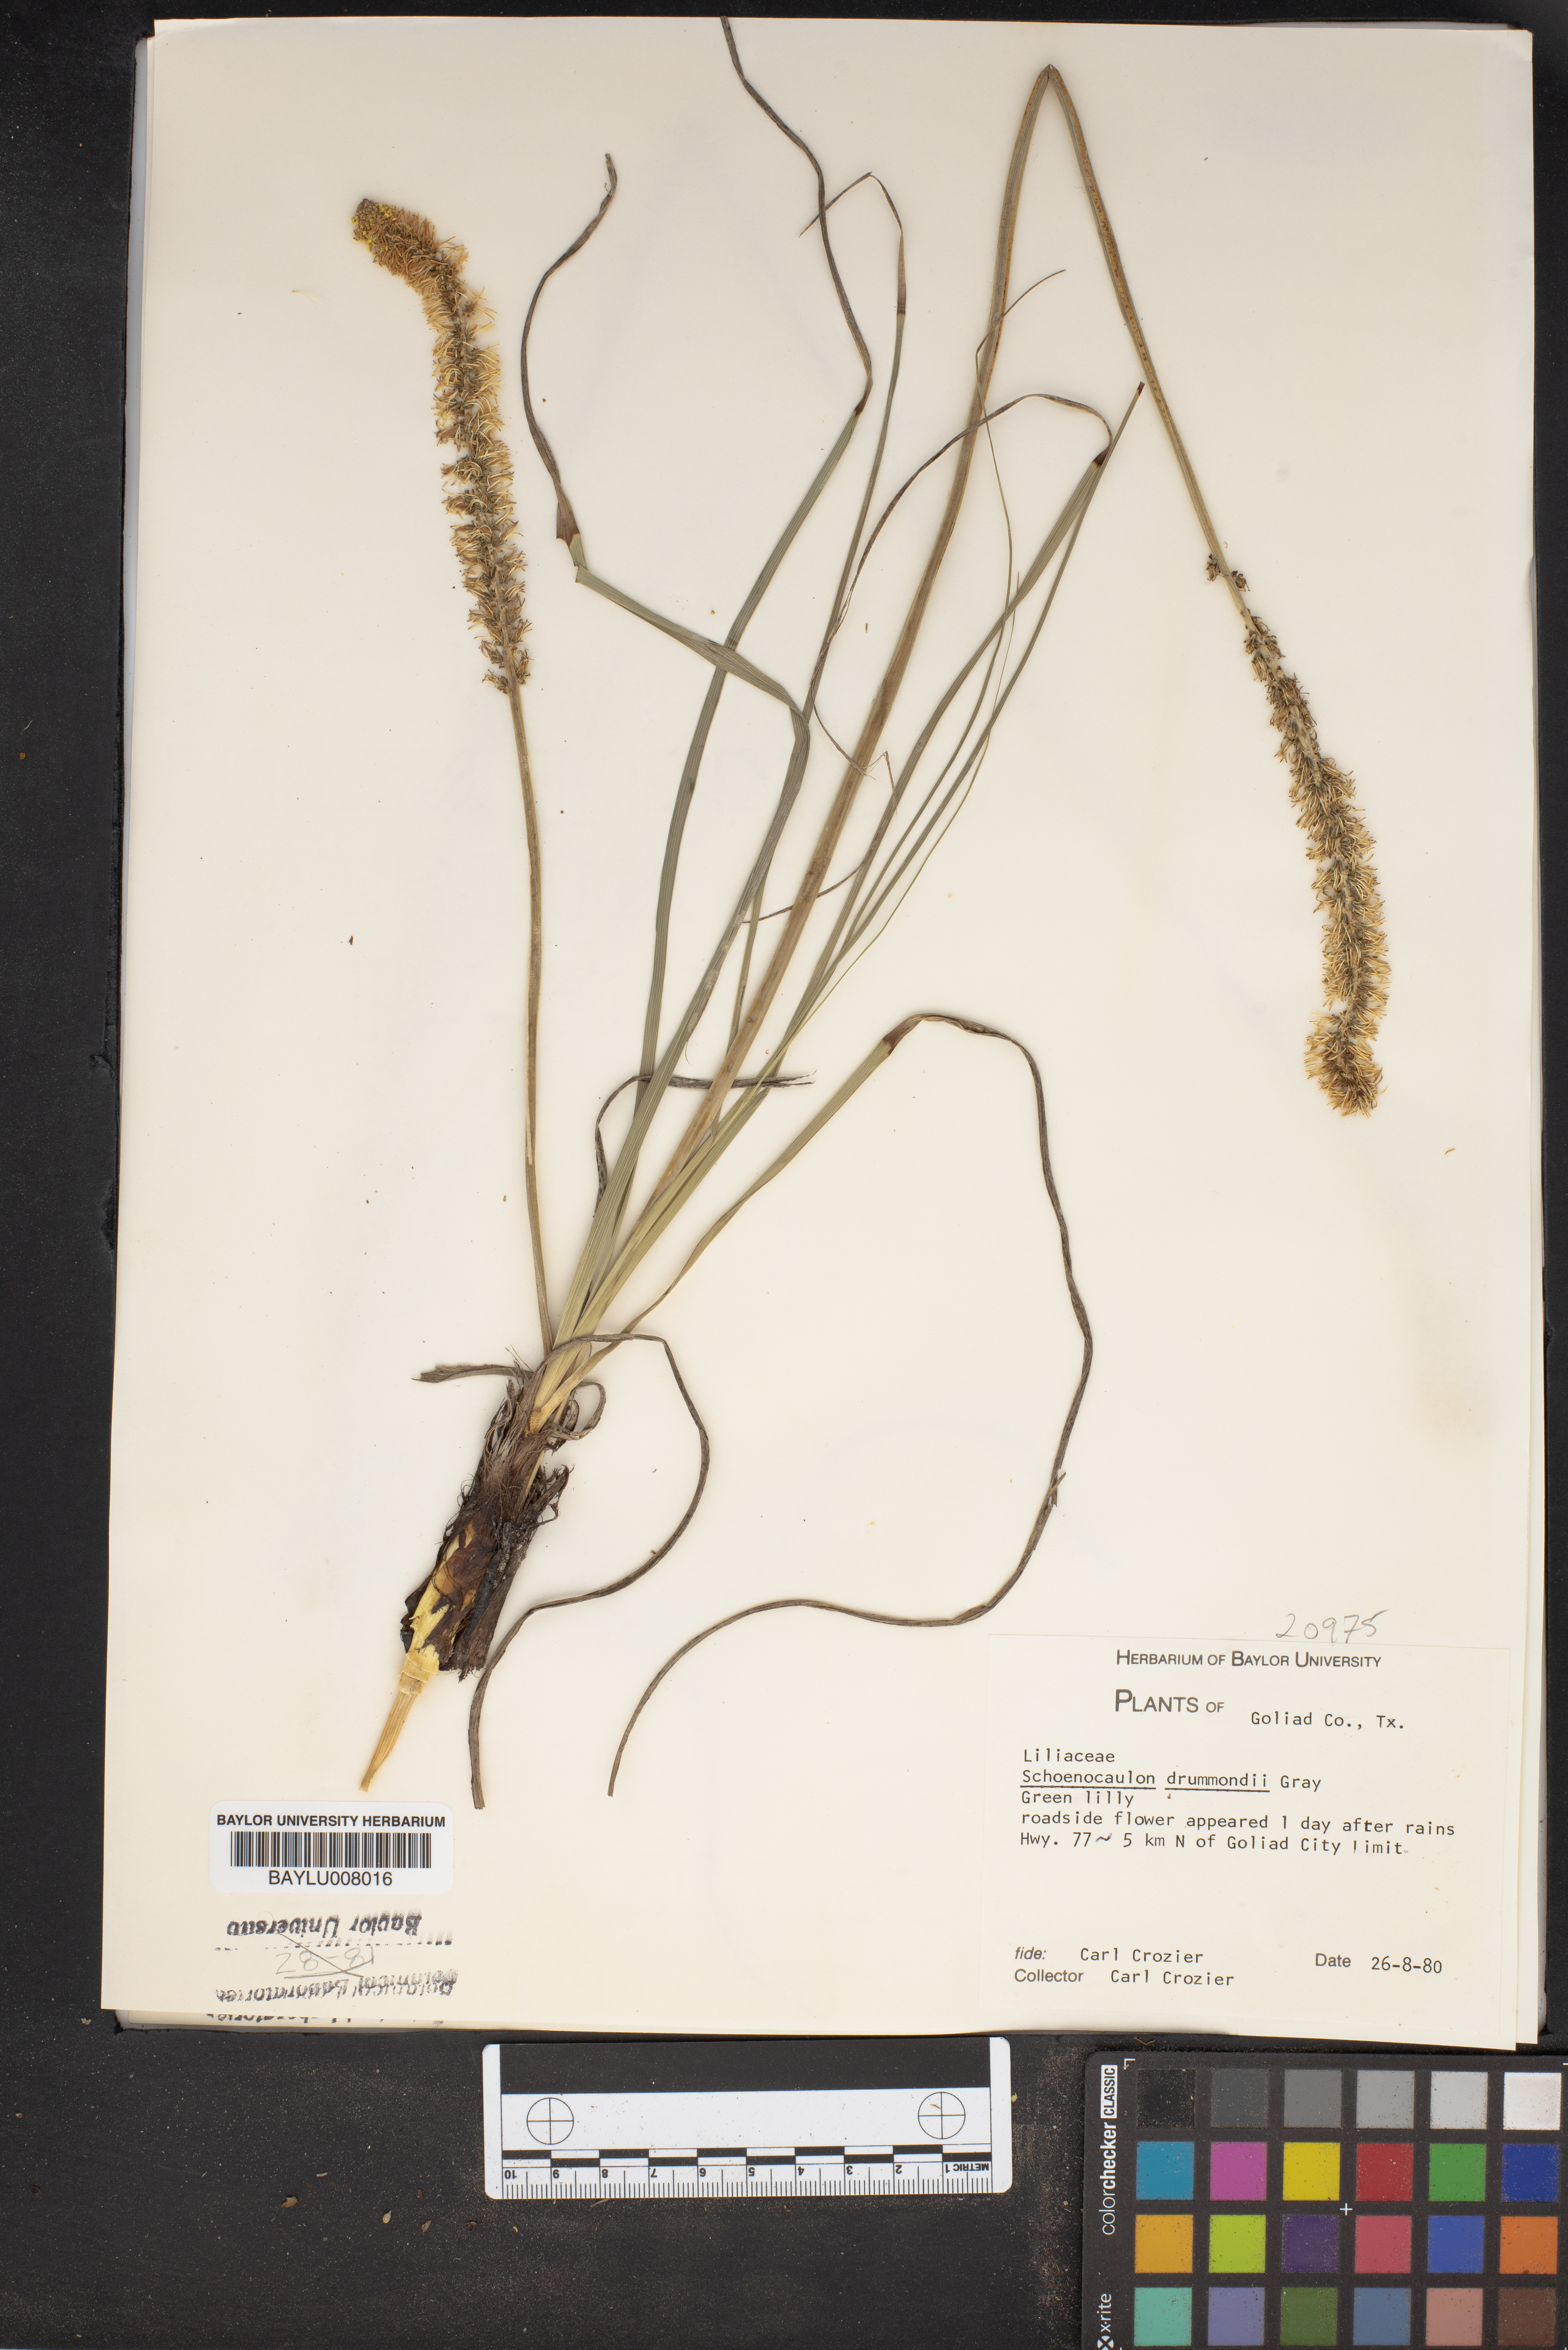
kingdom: Plantae
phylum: Tracheophyta
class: Liliopsida
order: Liliales
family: Melanthiaceae
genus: Schoenocaulon
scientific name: Schoenocaulon ghiesbreghtii
